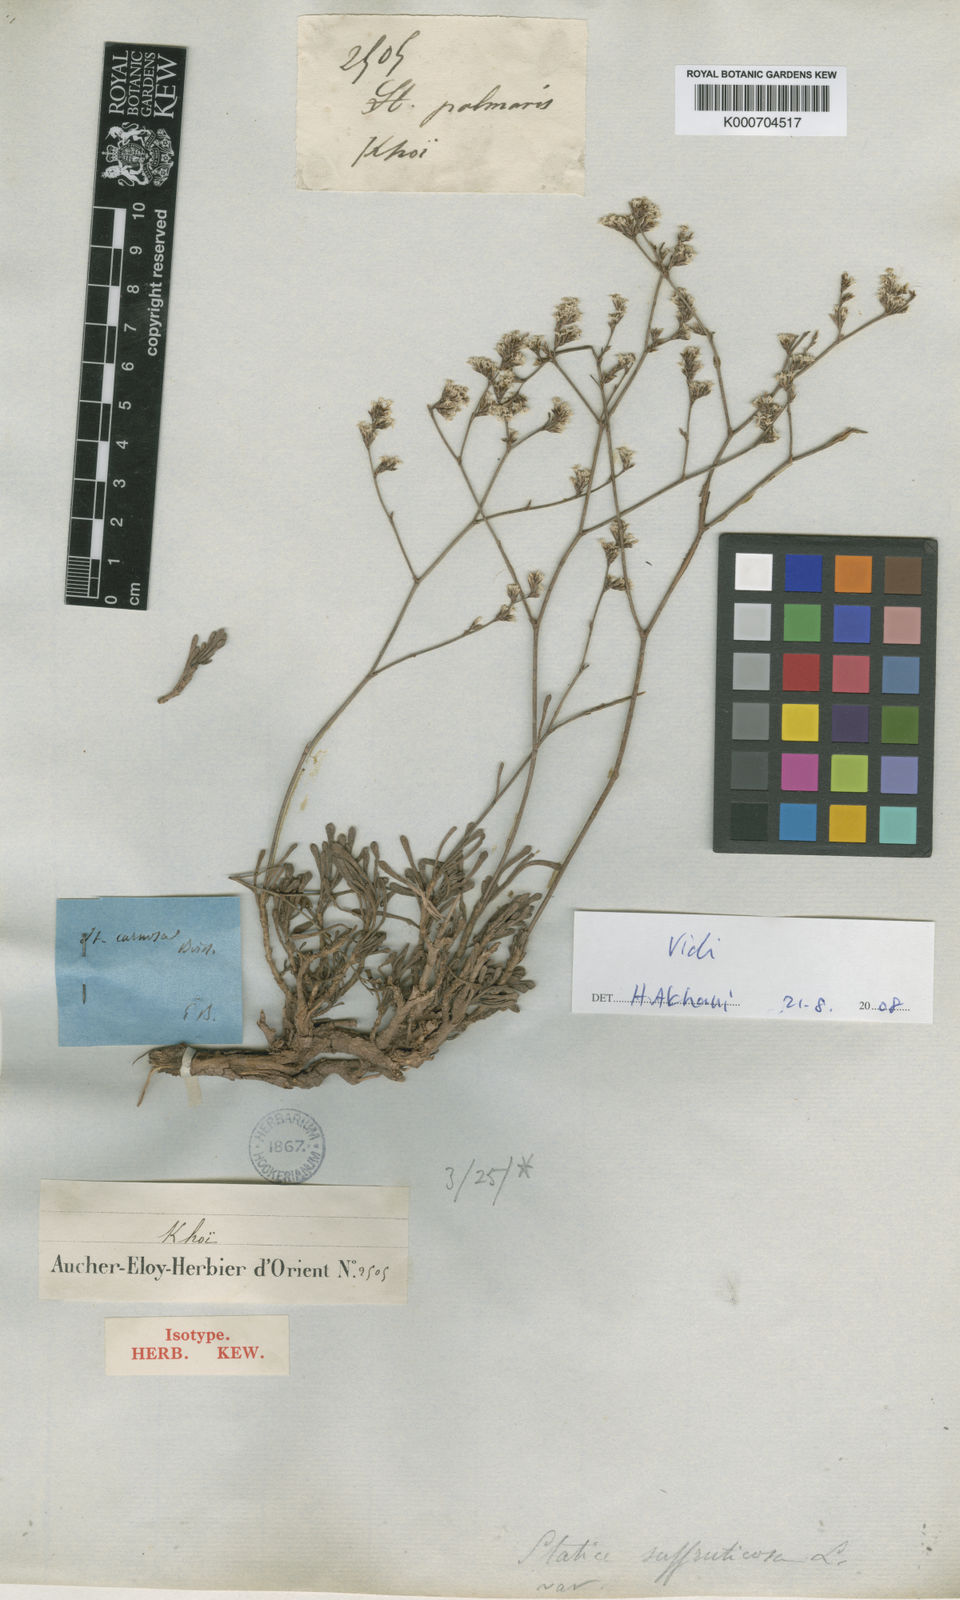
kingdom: Plantae
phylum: Tracheophyta
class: Magnoliopsida
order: Caryophyllales
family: Plumbaginaceae
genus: Limonium
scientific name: Limonium carnosum
